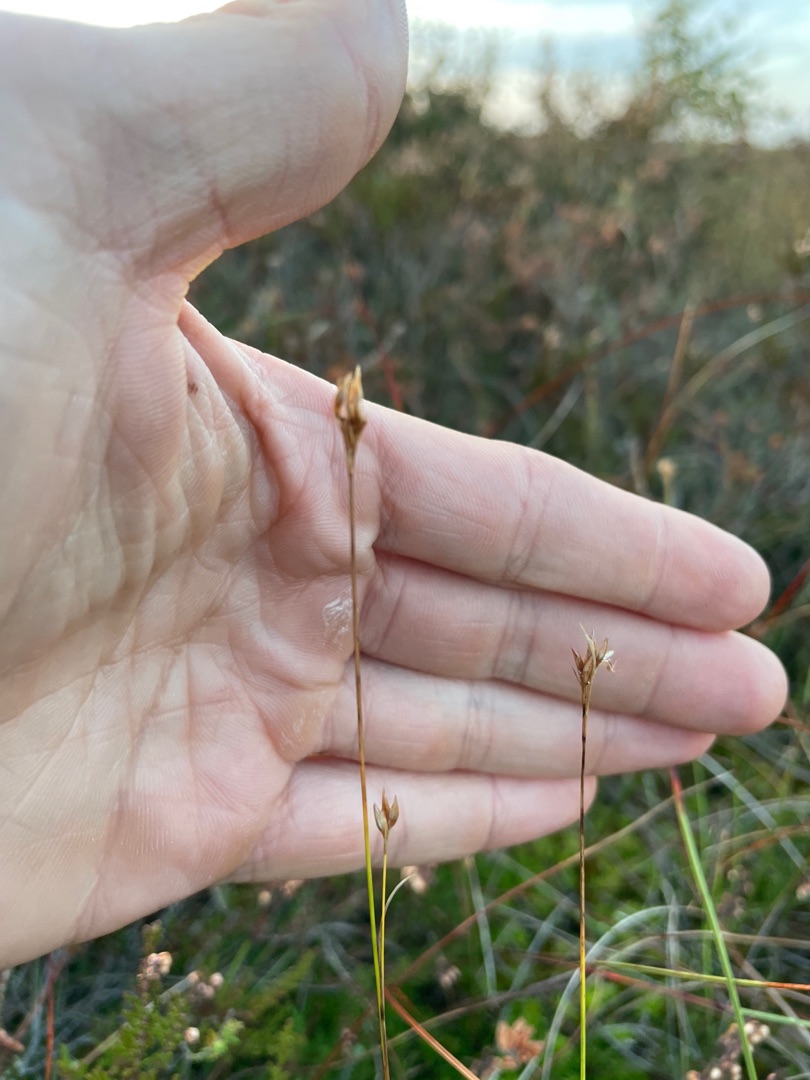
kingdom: Plantae
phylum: Tracheophyta
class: Liliopsida
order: Poales
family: Cyperaceae
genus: Rhynchospora
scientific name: Rhynchospora alba
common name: Hvid næbfrø
